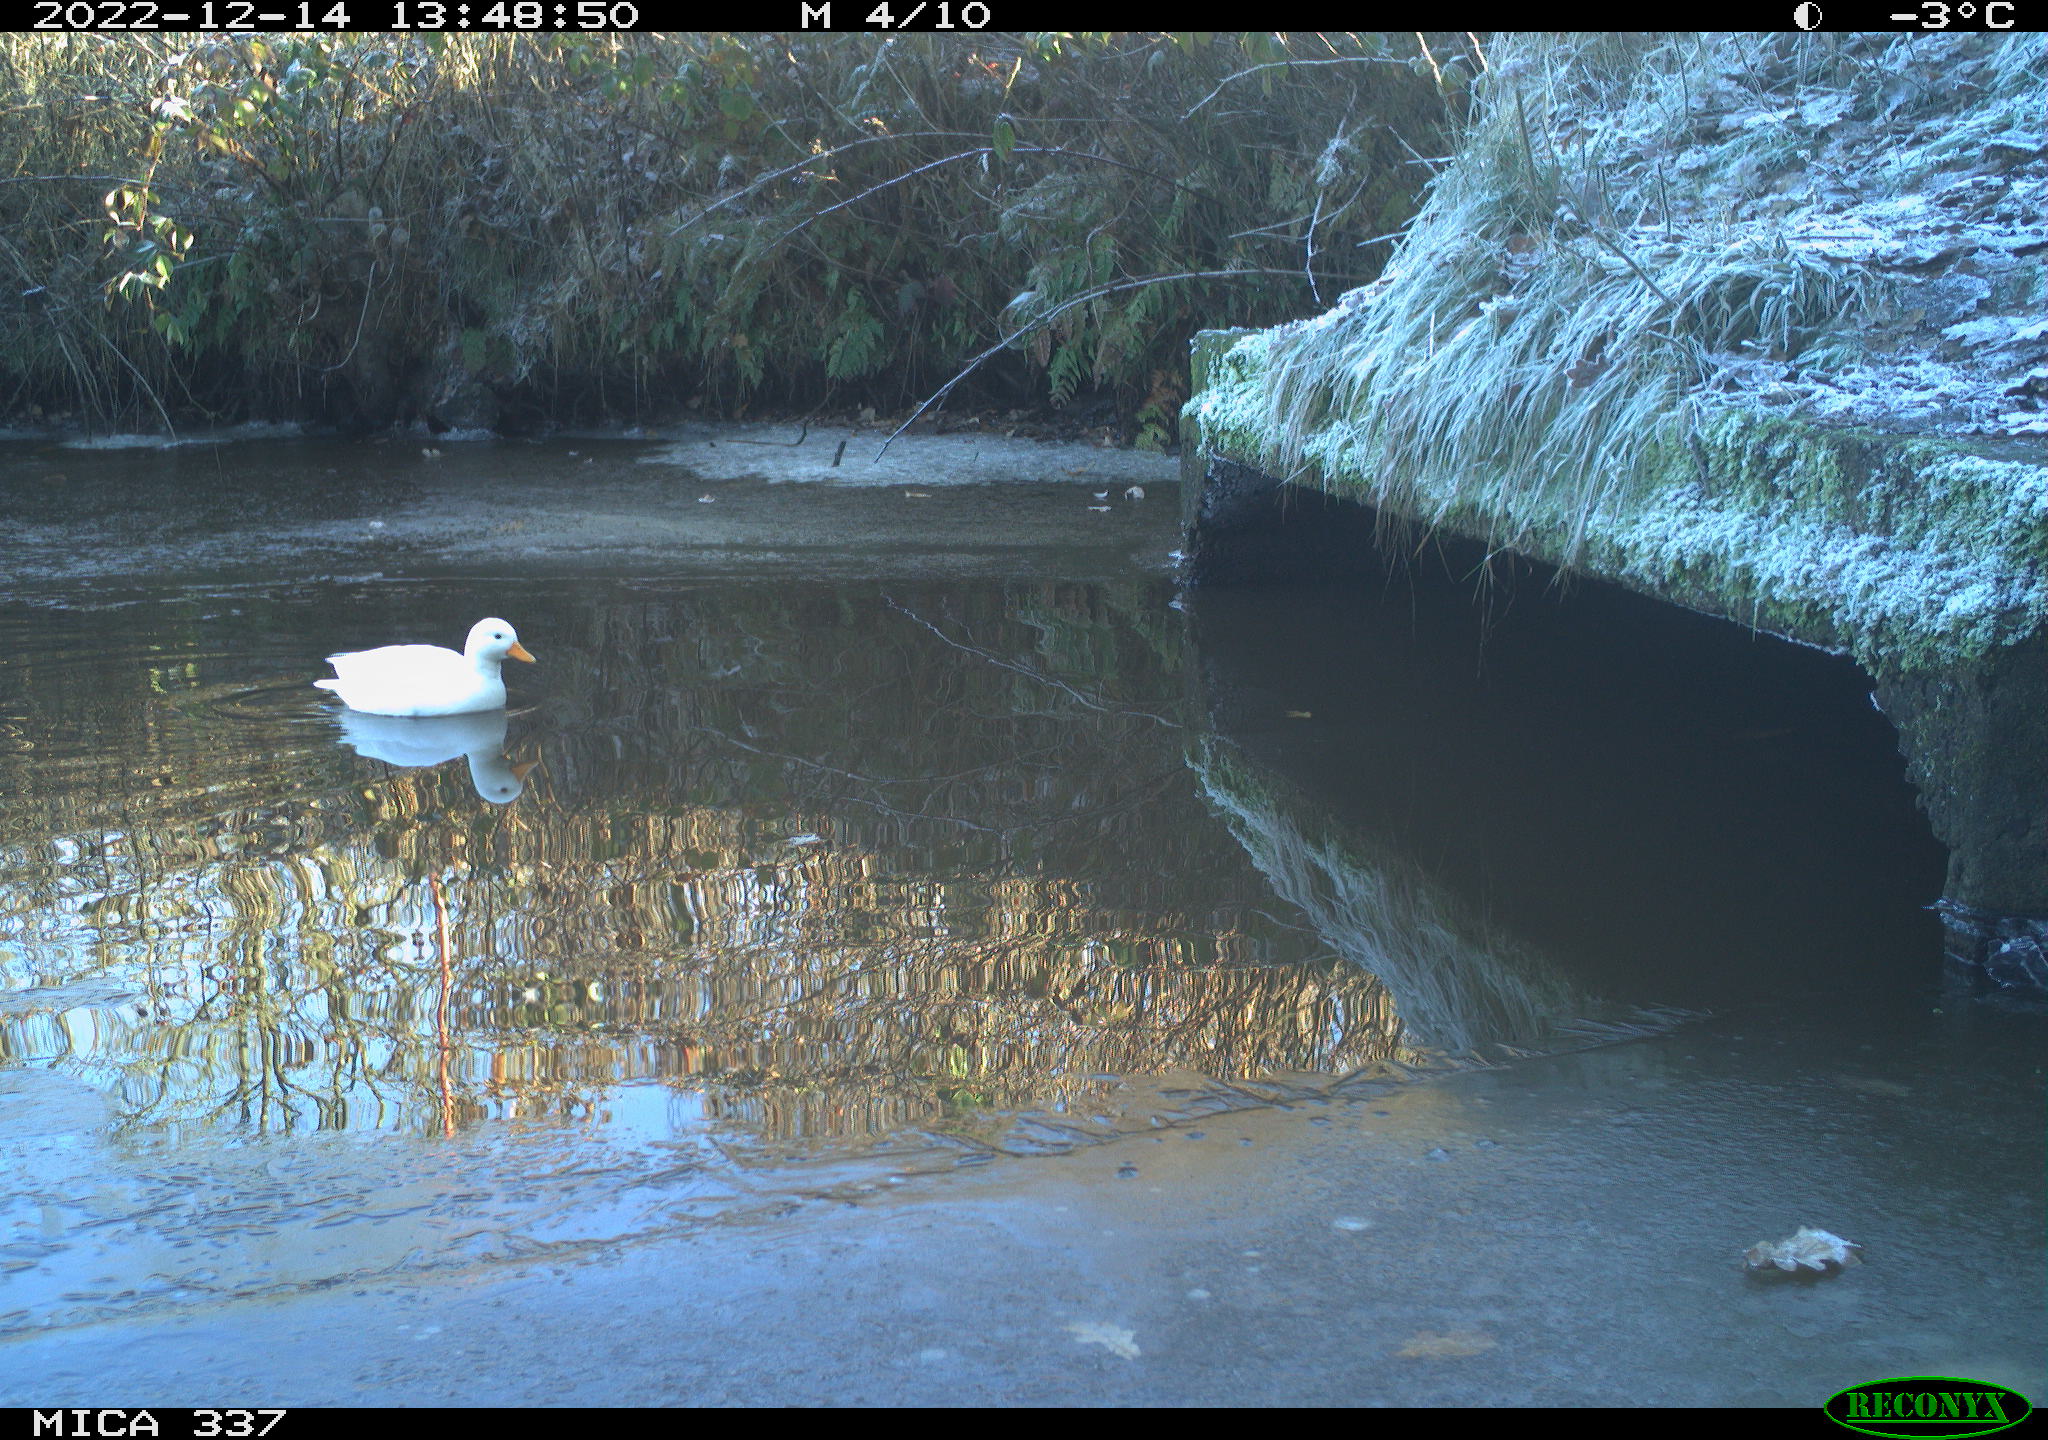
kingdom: Animalia
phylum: Chordata
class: Aves
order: Anseriformes
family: Anatidae
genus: Anas
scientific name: Anas
